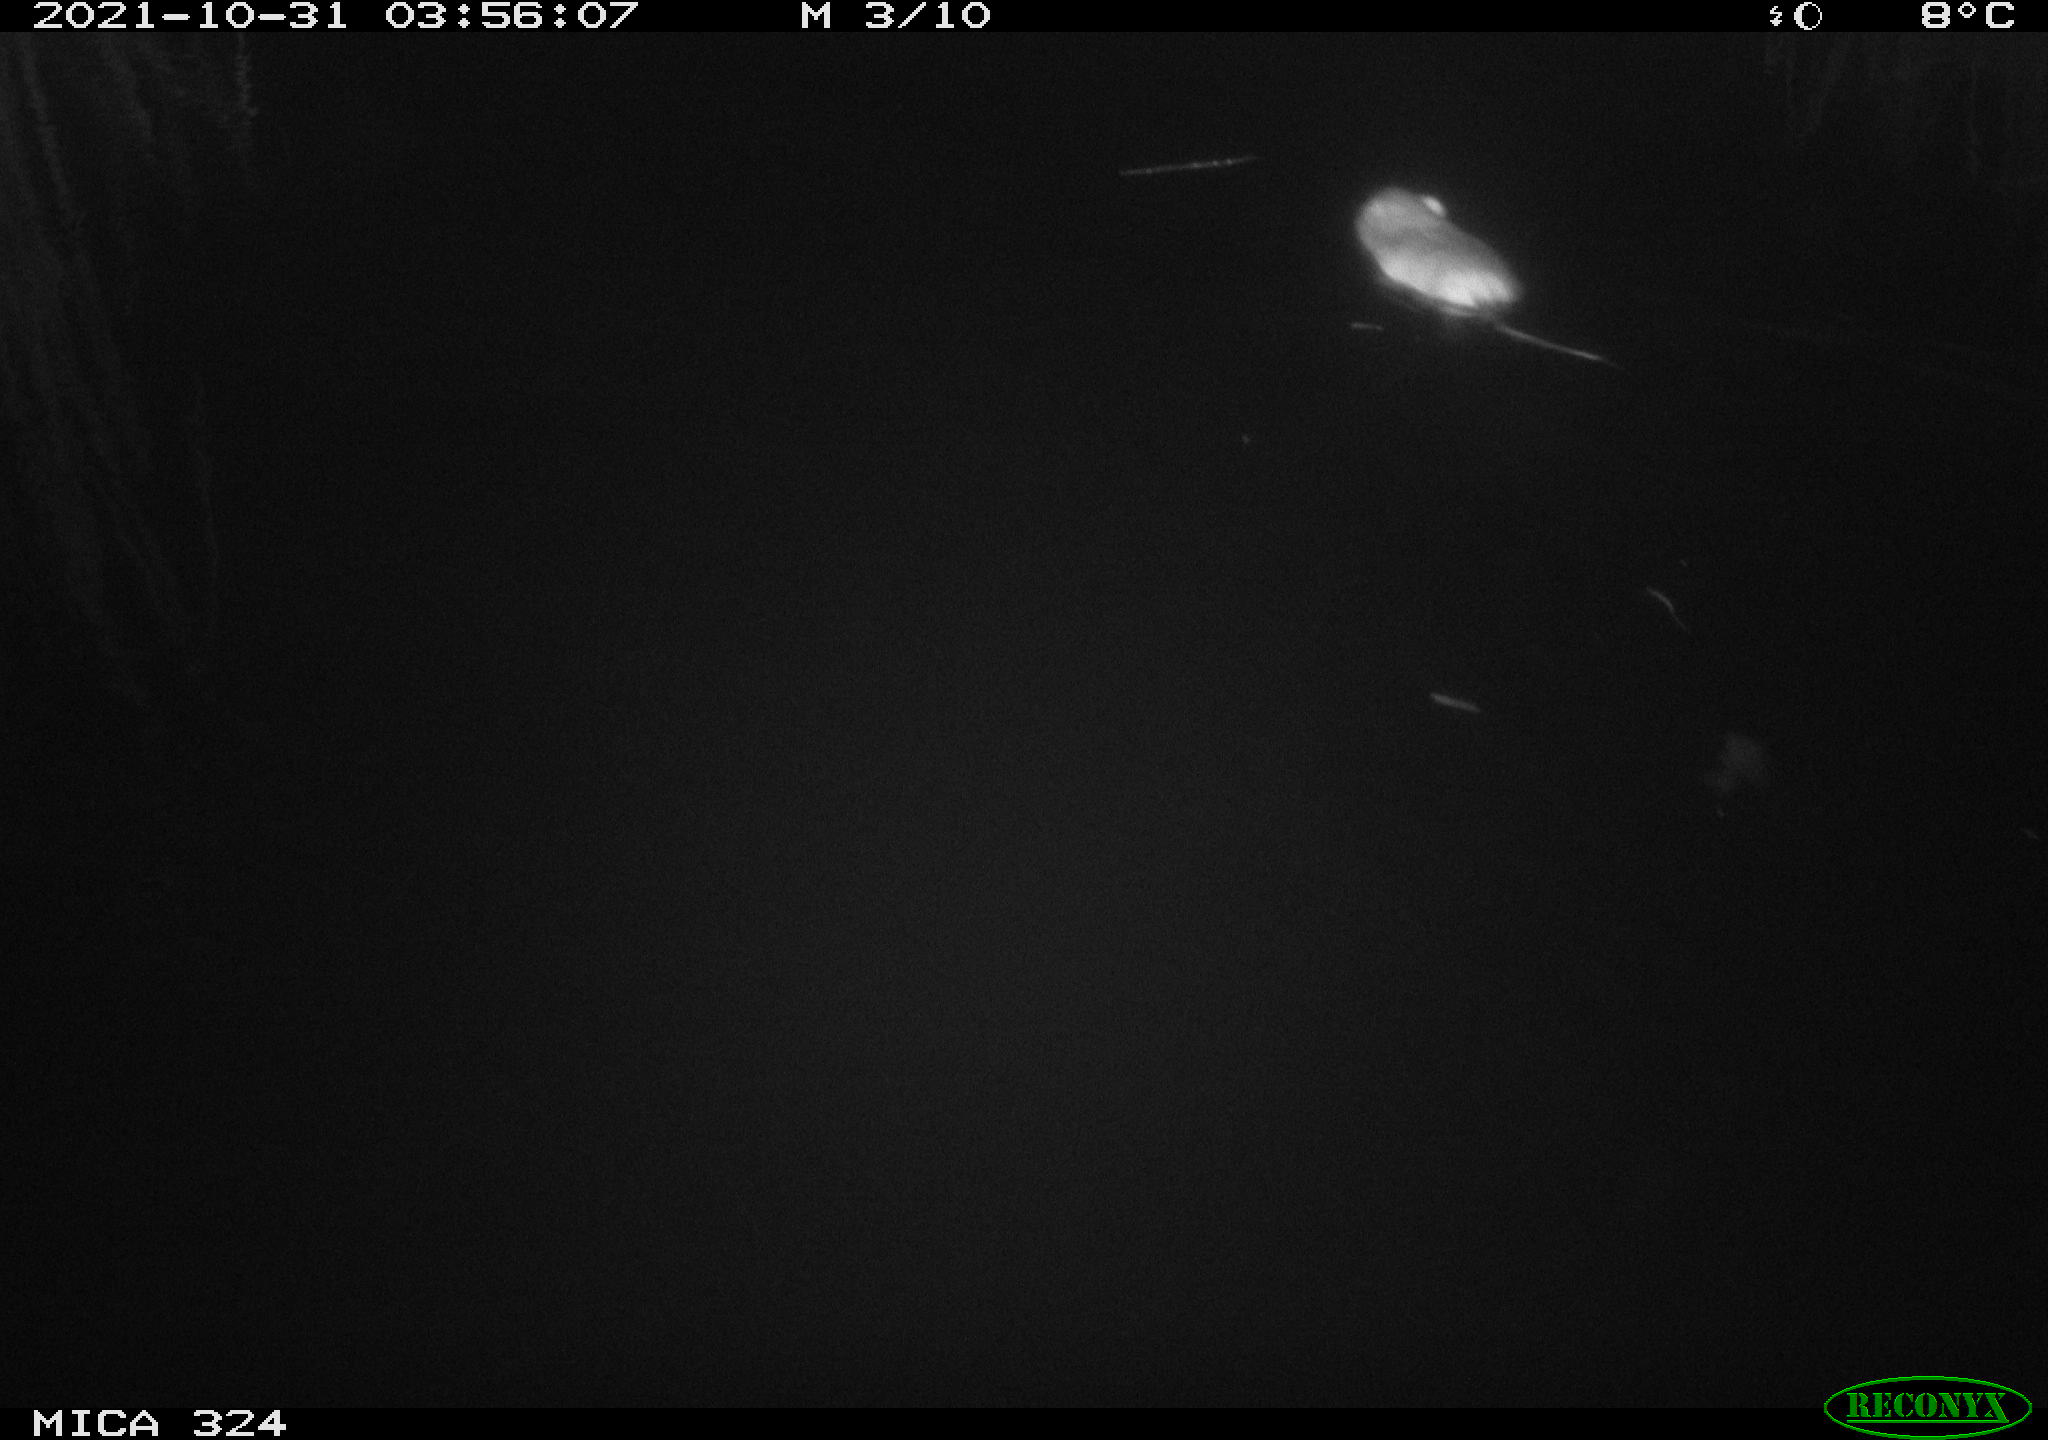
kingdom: Animalia
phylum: Chordata
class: Mammalia
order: Rodentia
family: Cricetidae
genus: Ondatra
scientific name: Ondatra zibethicus
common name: Muskrat
